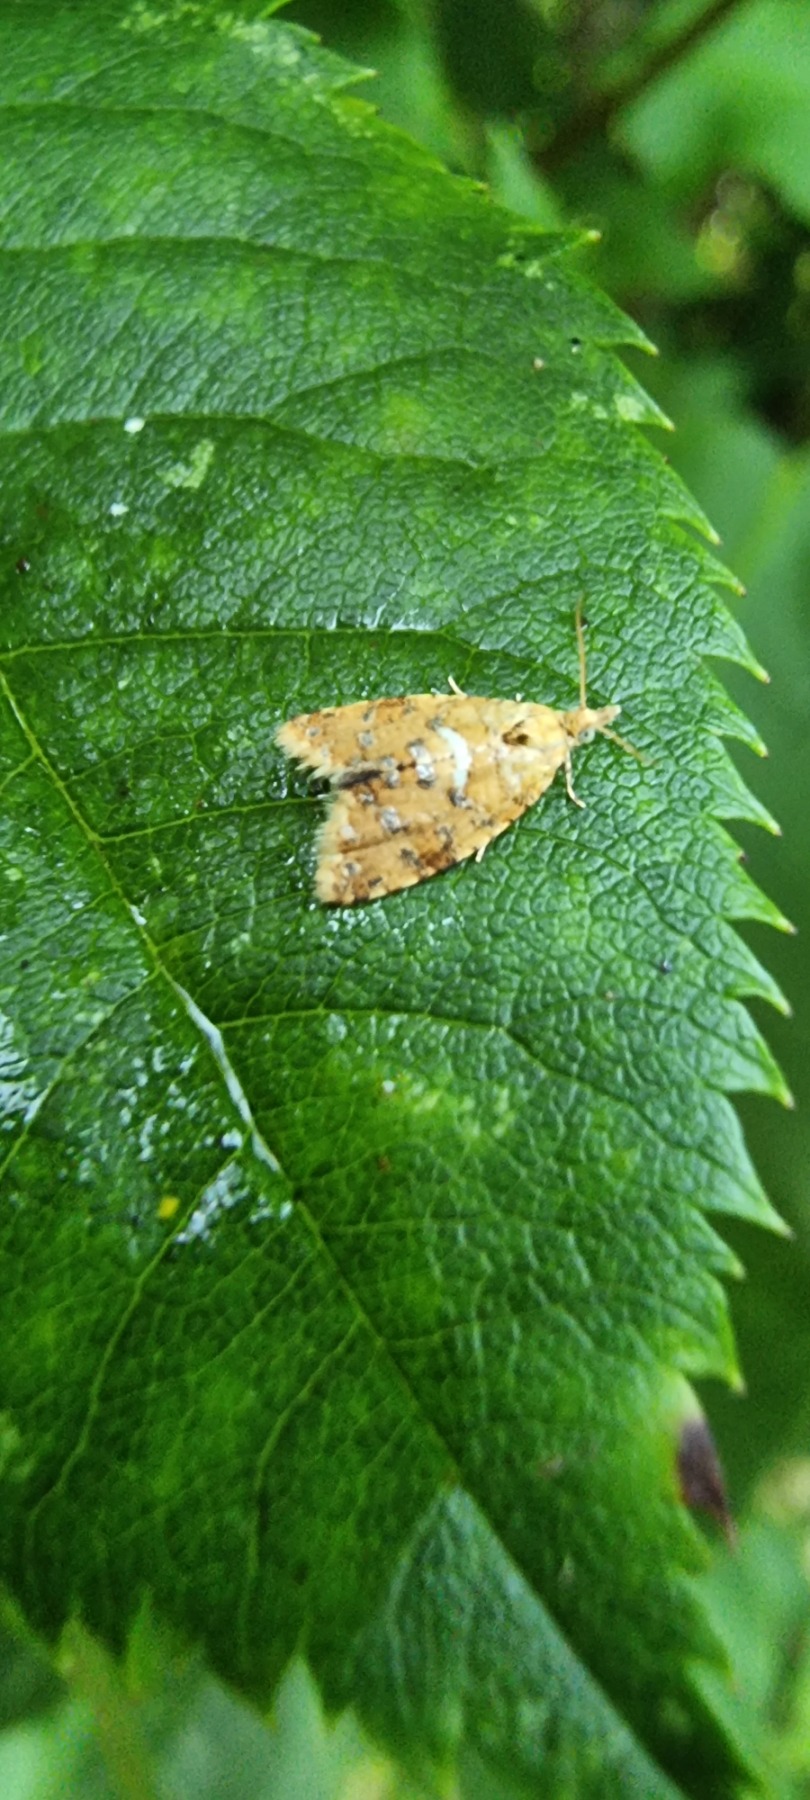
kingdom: Animalia
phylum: Arthropoda
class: Insecta
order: Lepidoptera
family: Tortricidae
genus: Pseudargyrotoza
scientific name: Pseudargyrotoza conwagana
